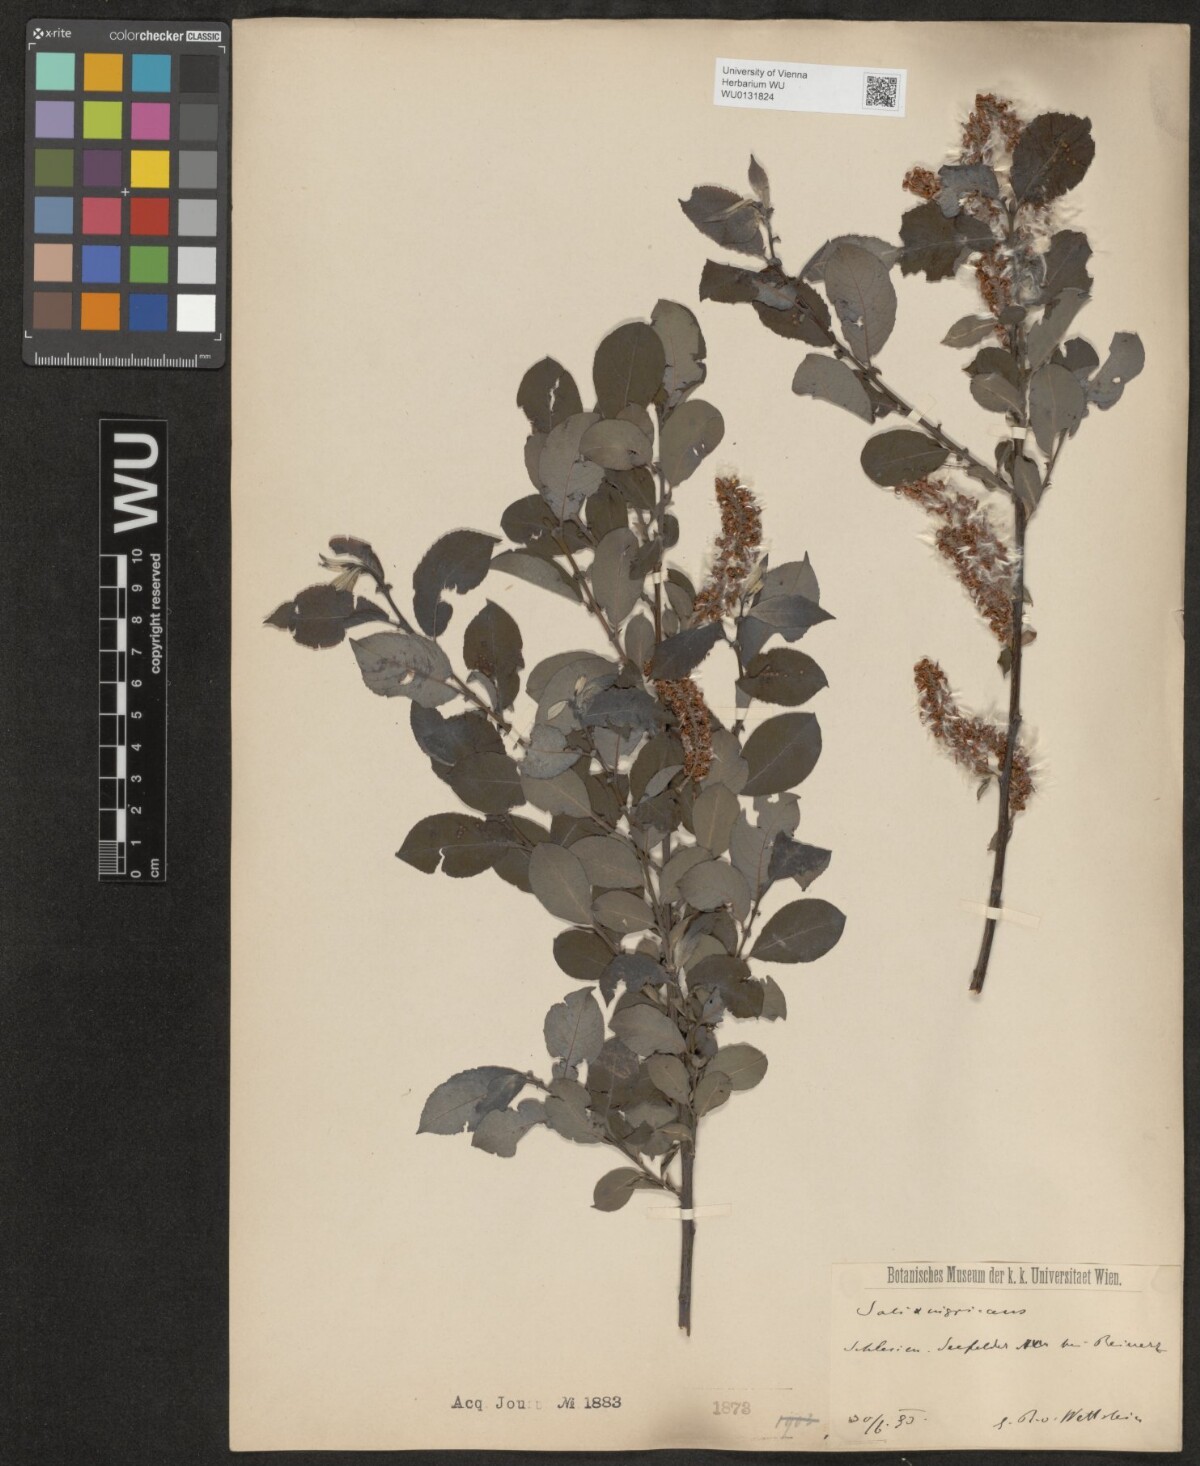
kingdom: Plantae
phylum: Tracheophyta
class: Magnoliopsida
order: Malpighiales
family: Salicaceae
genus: Salix
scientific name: Salix myrsinifolia
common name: Dark-leaved willow
